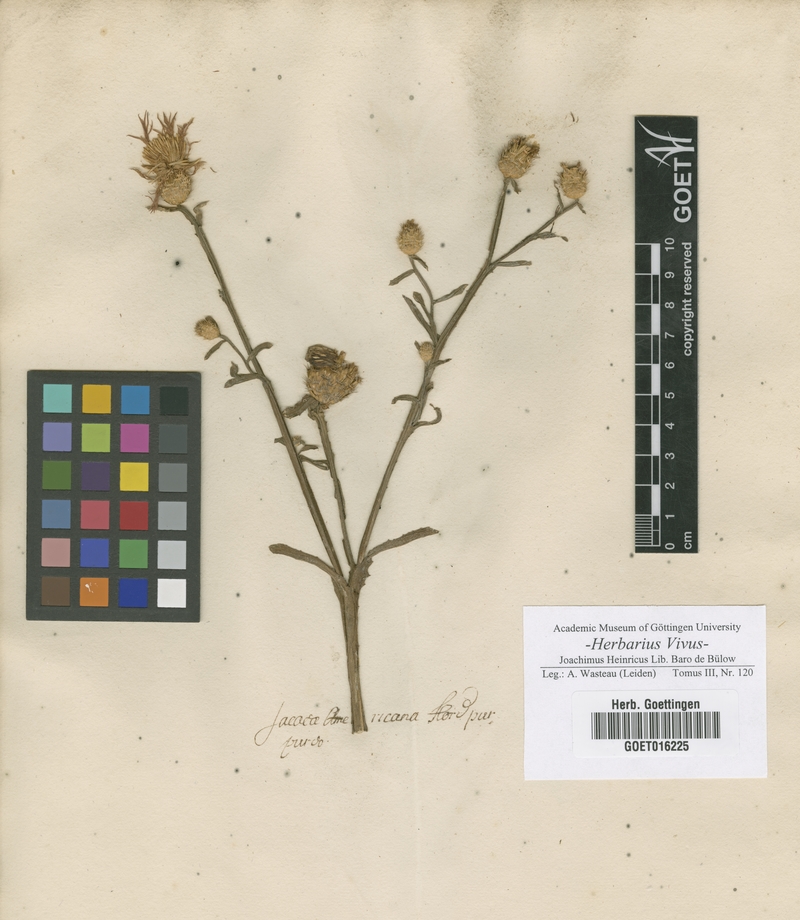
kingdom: Plantae
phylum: Tracheophyta
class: Magnoliopsida
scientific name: Magnoliopsida
